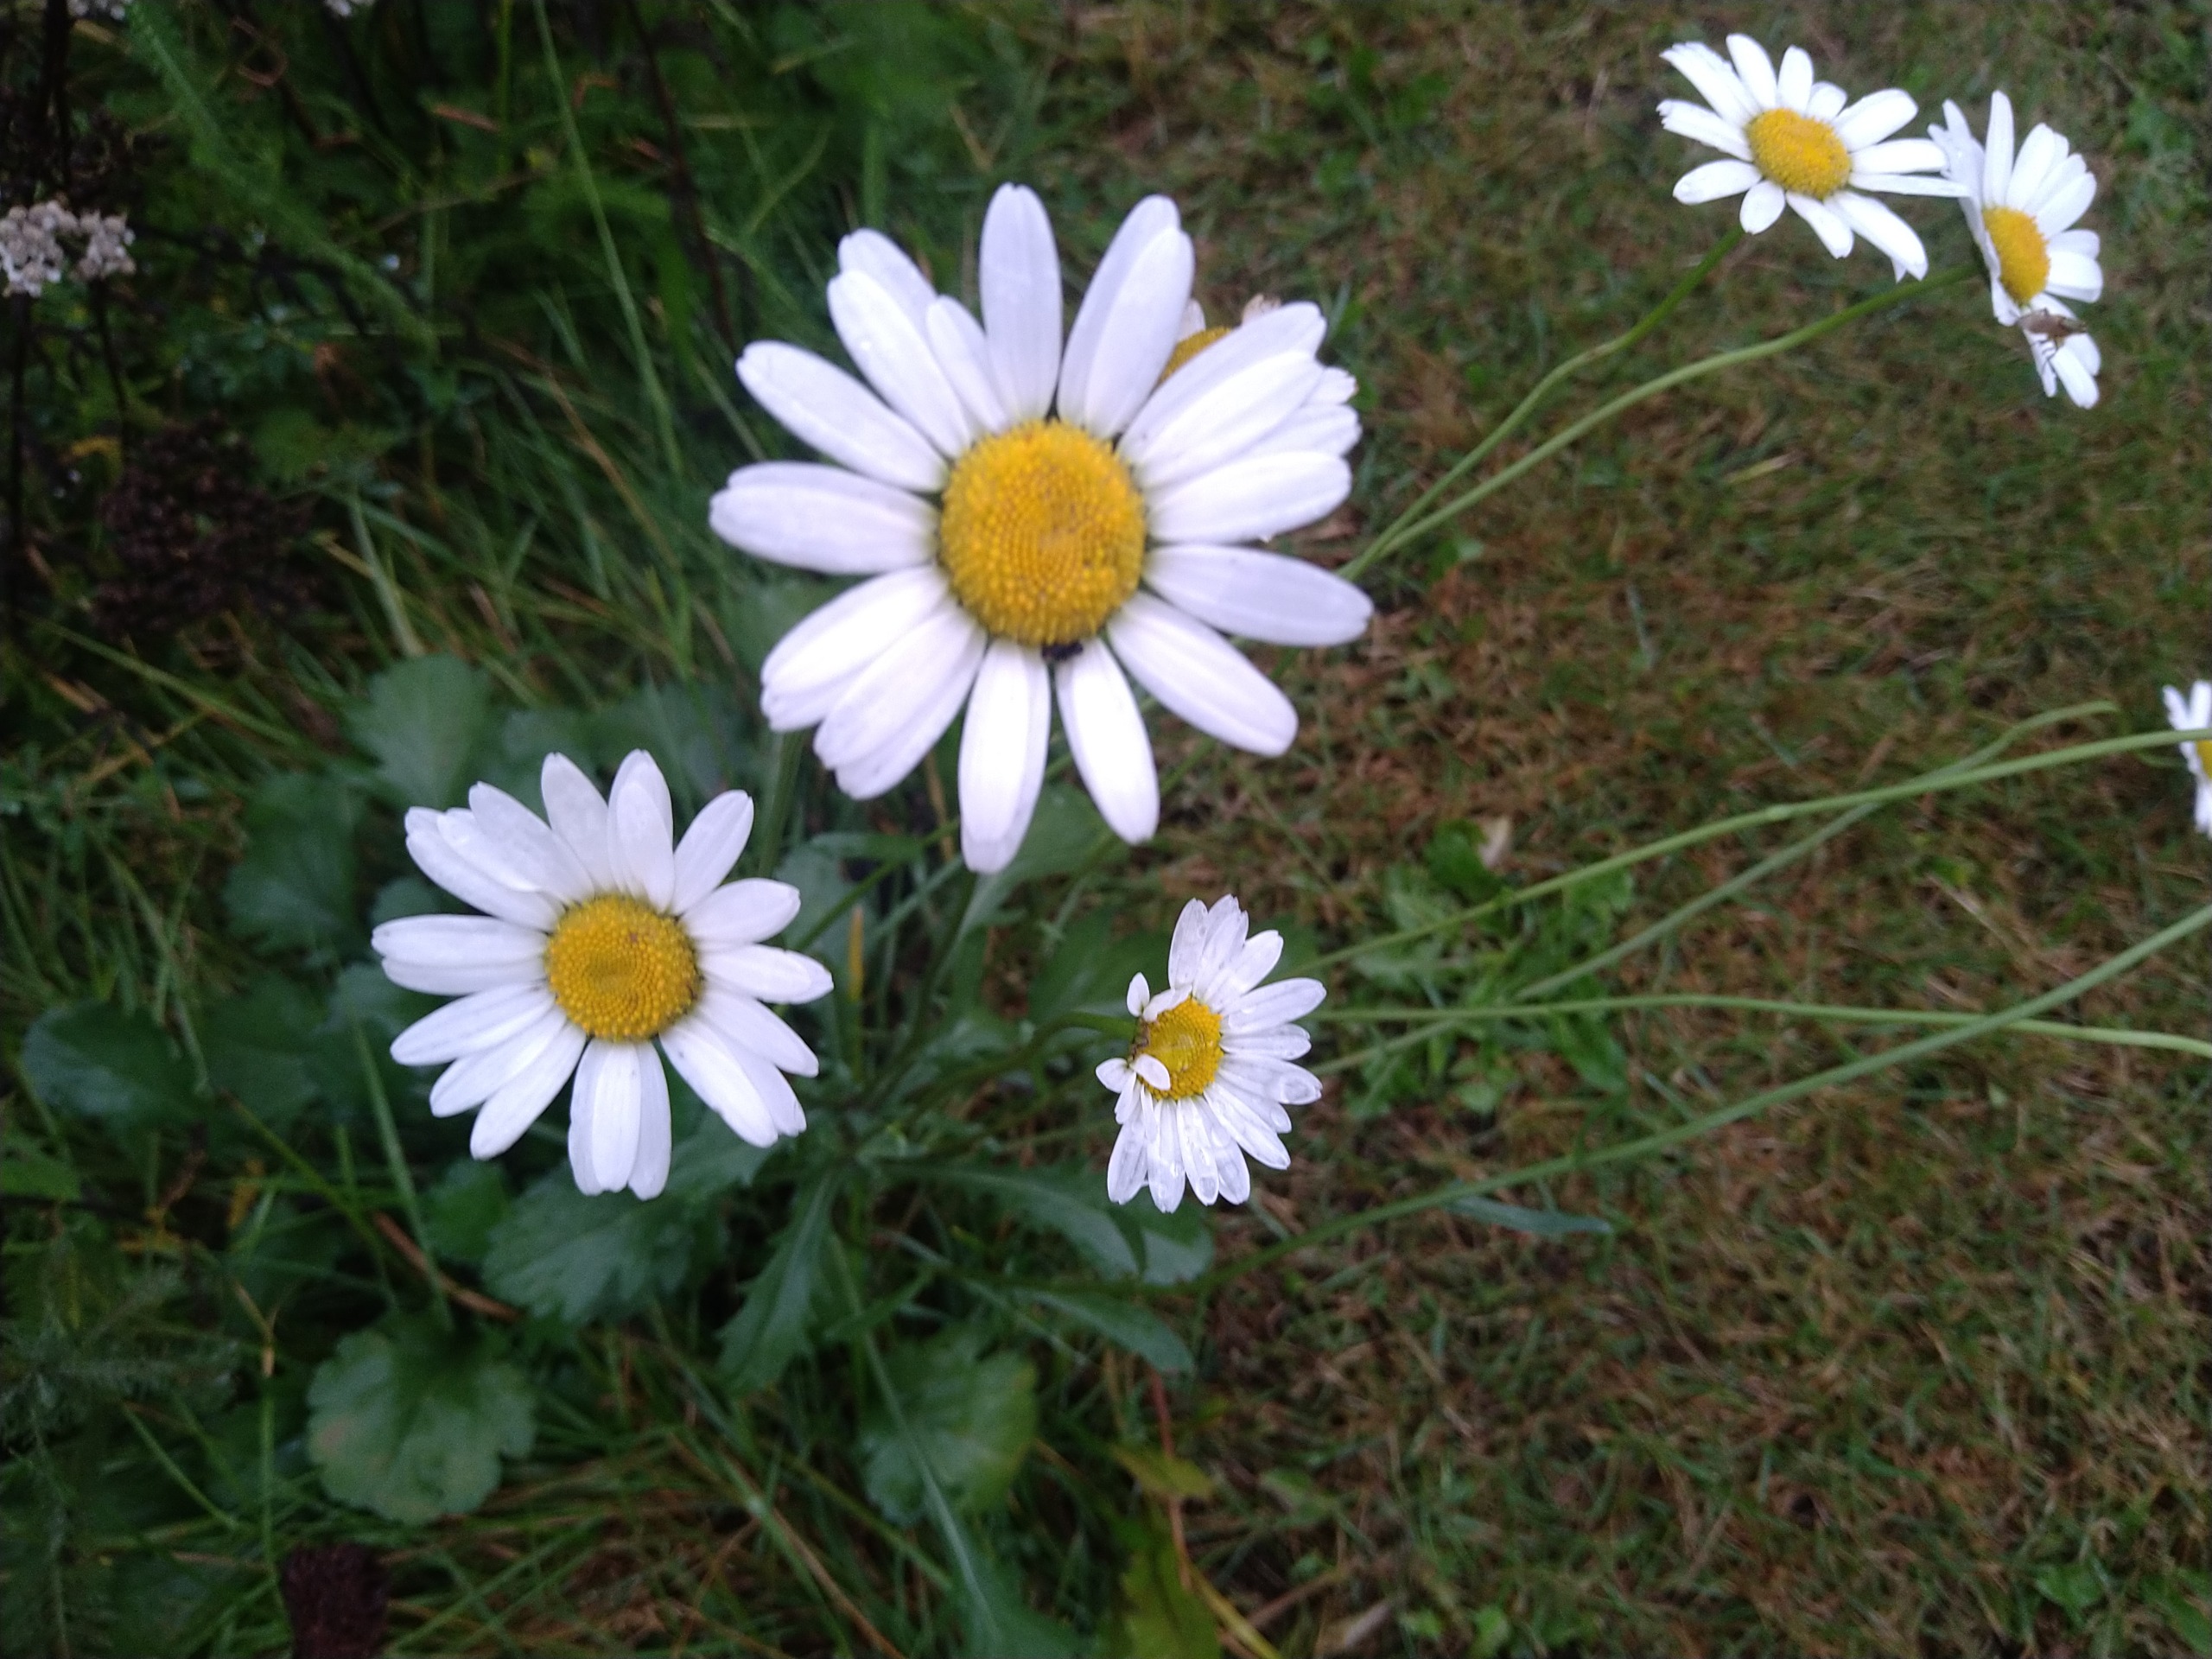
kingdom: Plantae
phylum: Tracheophyta
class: Magnoliopsida
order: Asterales
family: Asteraceae
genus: Leucanthemum
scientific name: Leucanthemum vulgare
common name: Hvid okseøje
